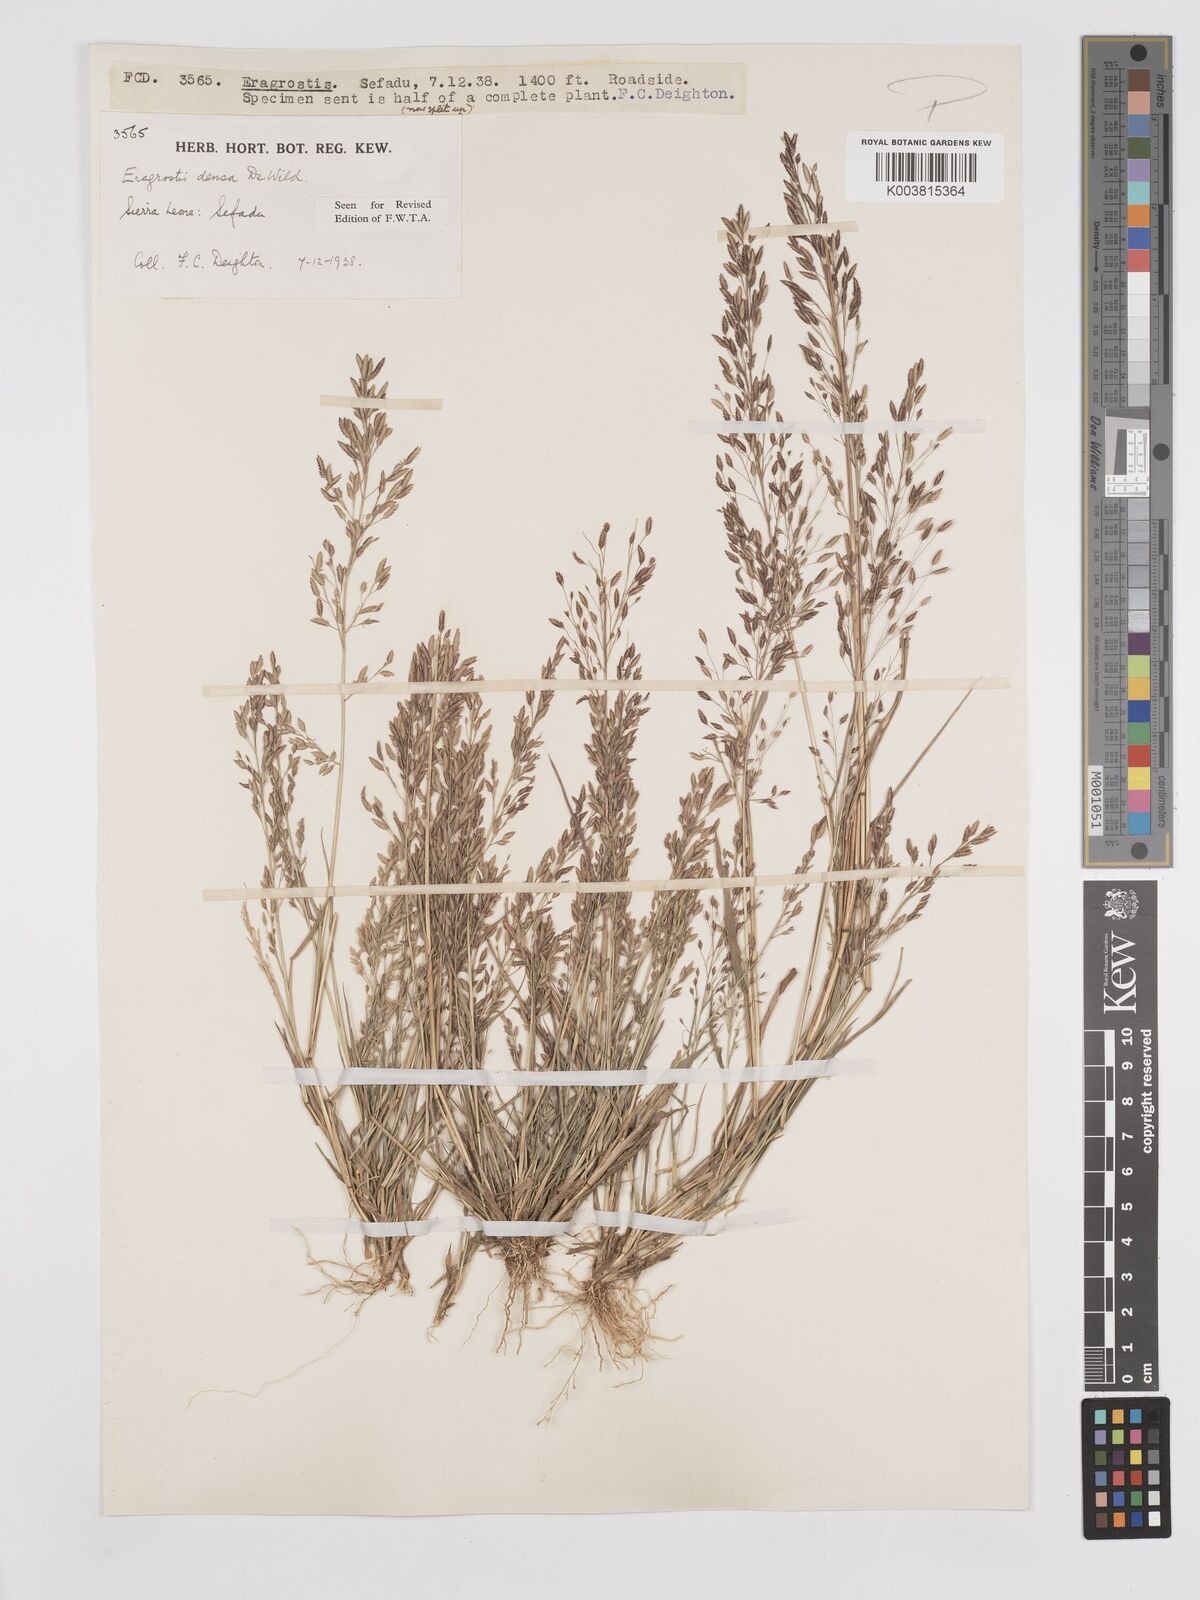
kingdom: Plantae
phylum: Tracheophyta
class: Liliopsida
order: Poales
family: Poaceae
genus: Eragrostis
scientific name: Eragrostis welwitschii
